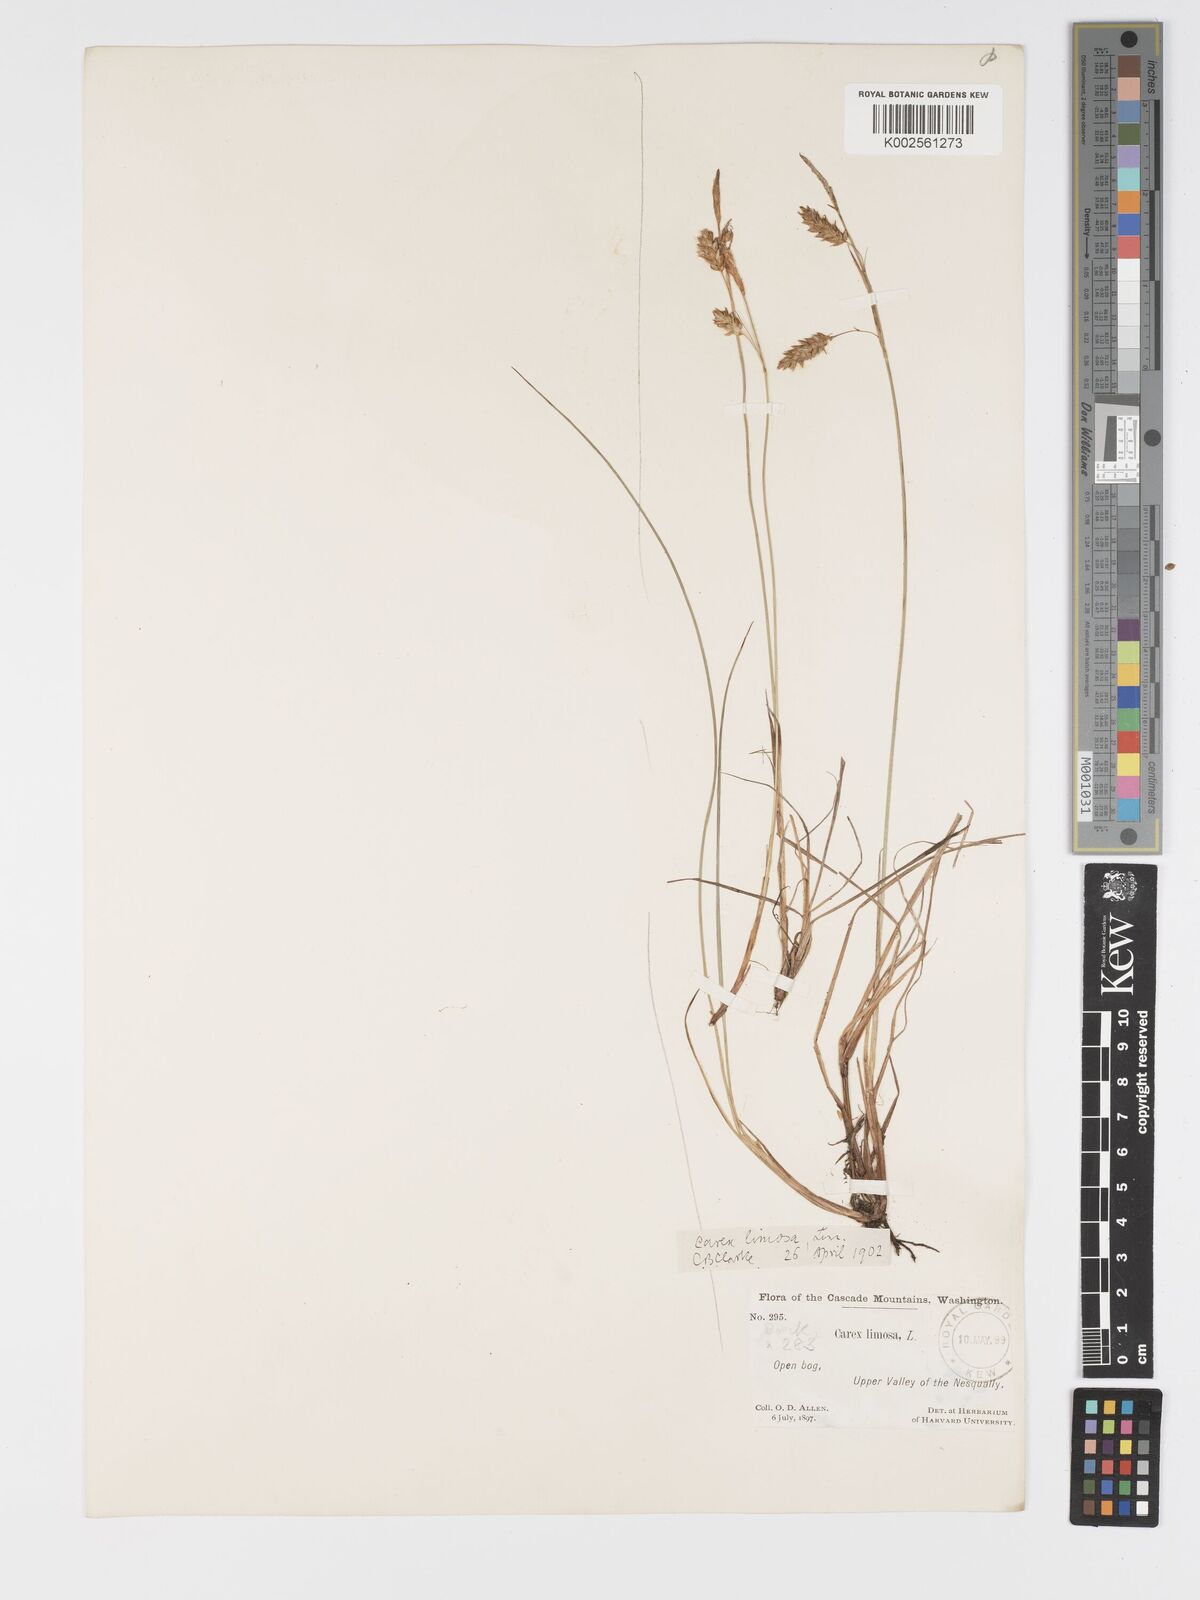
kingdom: Plantae
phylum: Tracheophyta
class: Liliopsida
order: Poales
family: Cyperaceae
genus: Carex
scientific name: Carex limosa
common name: Bog sedge
